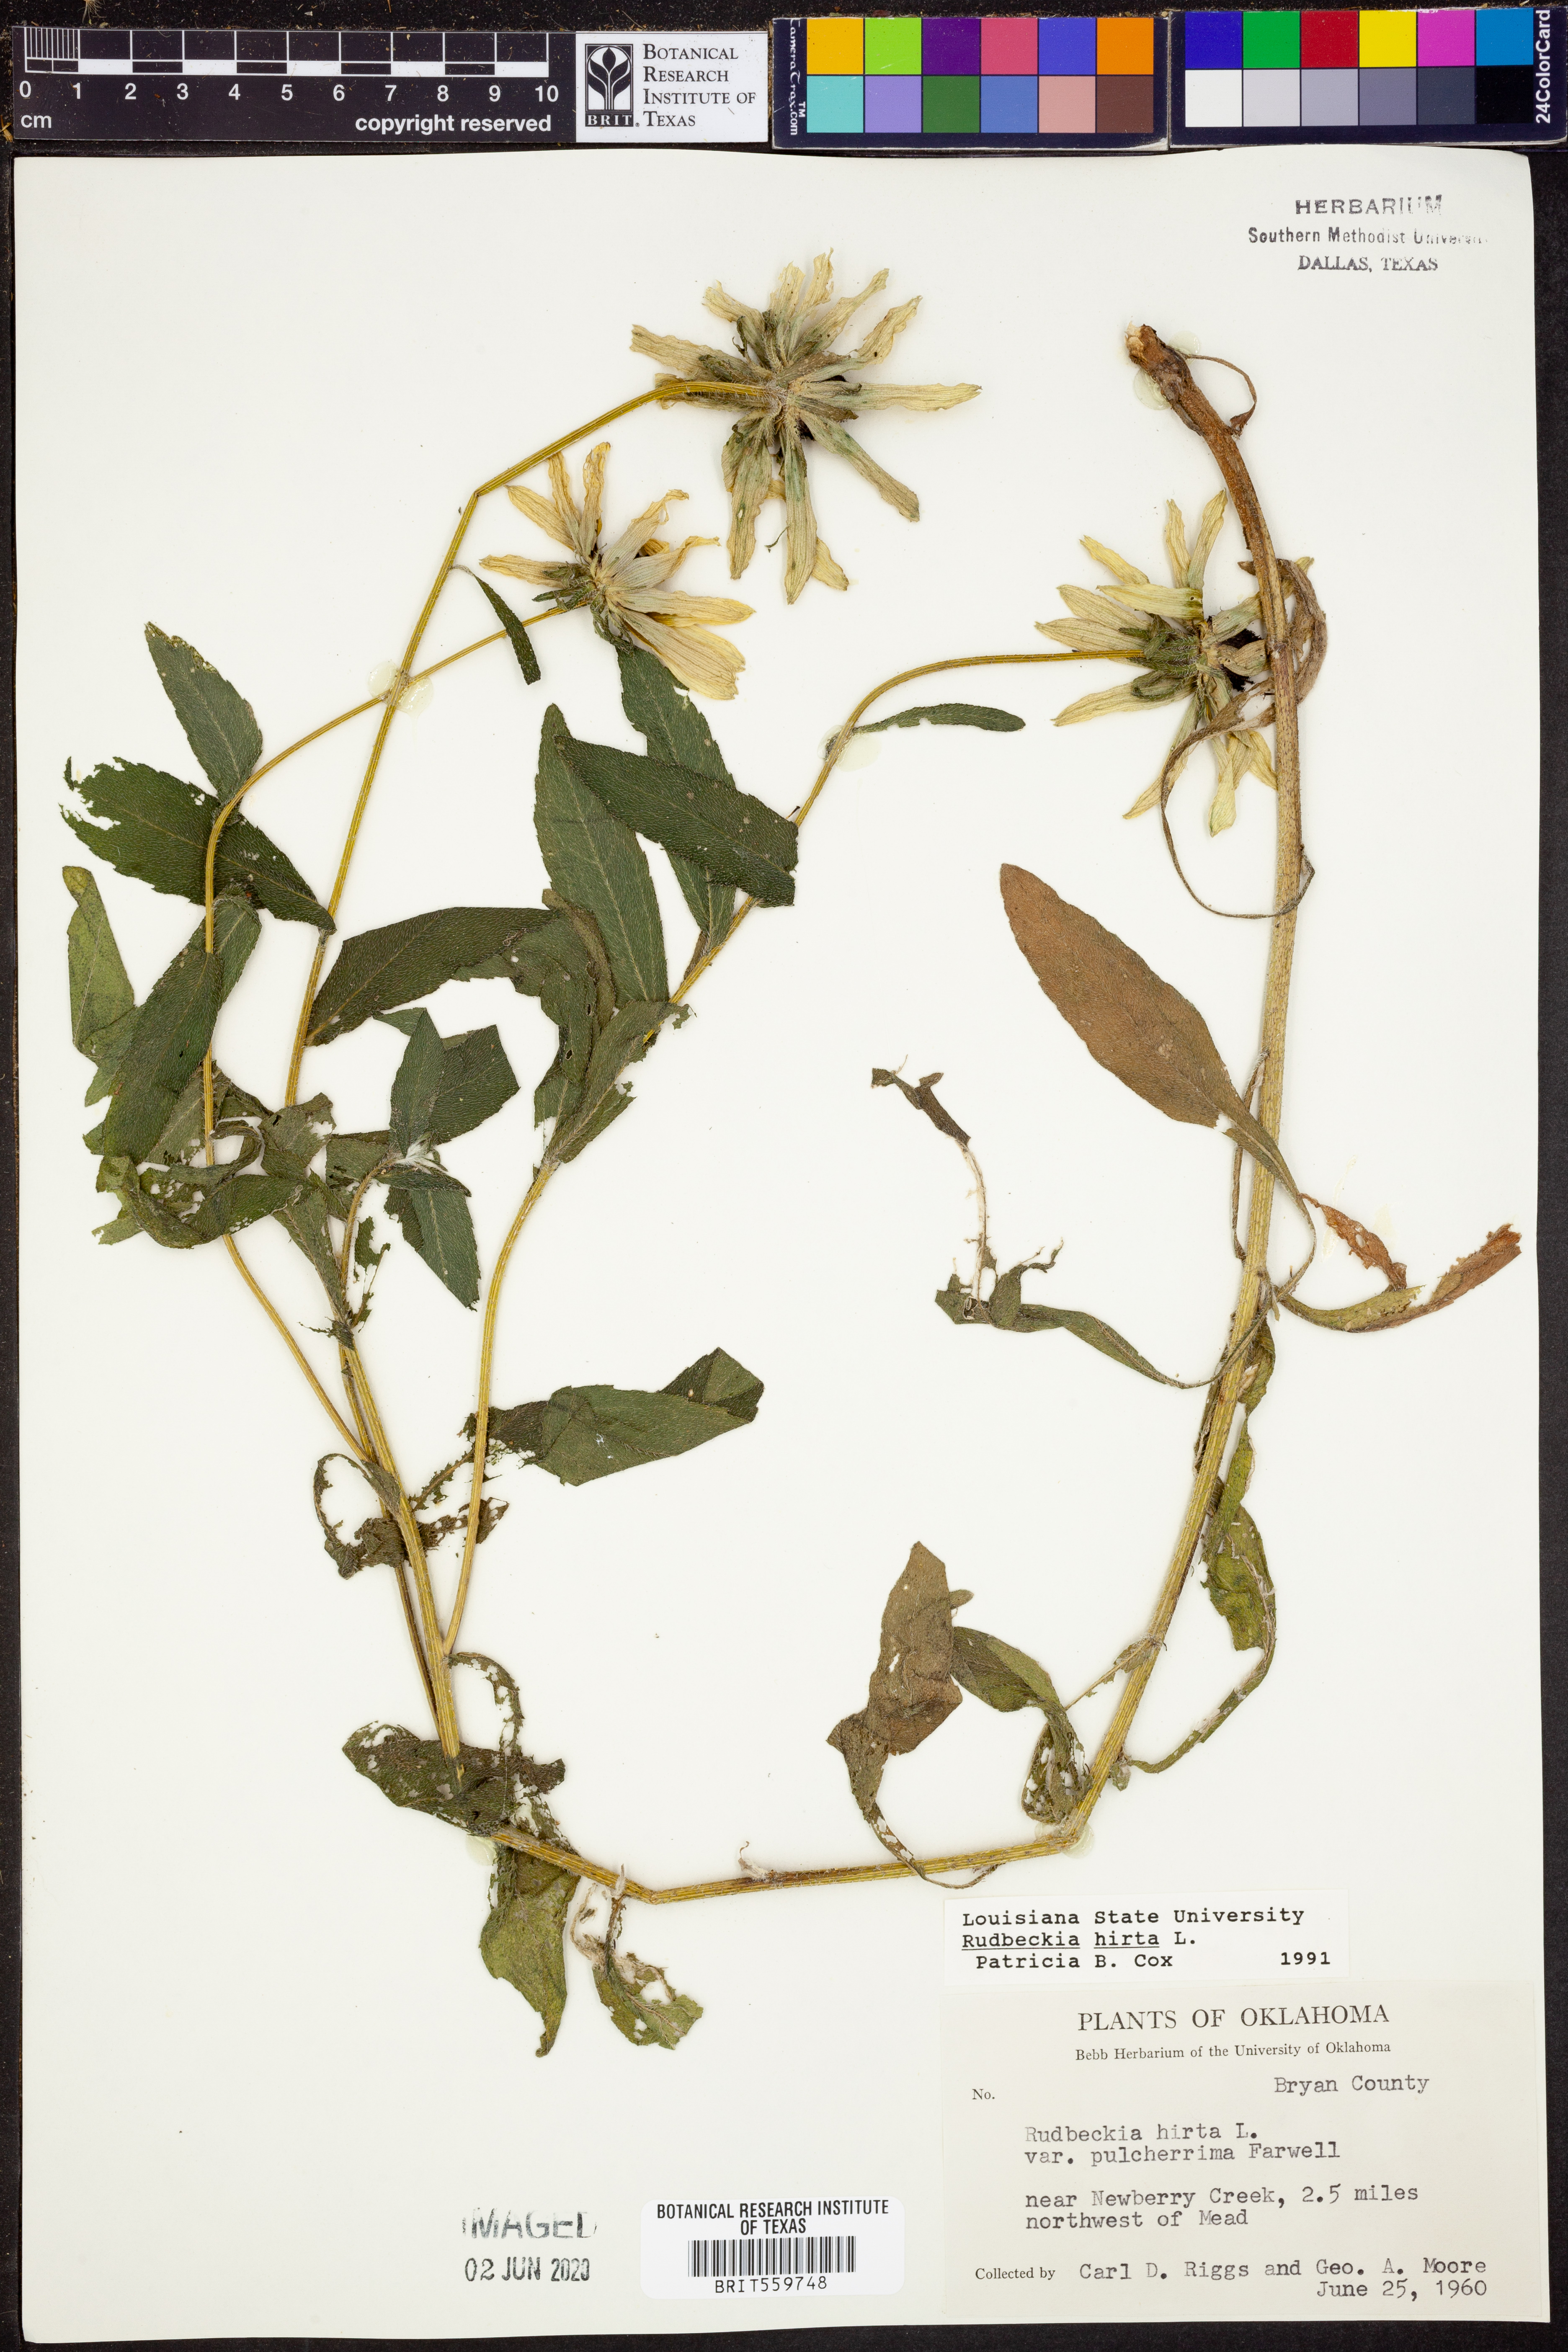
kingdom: Plantae
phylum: Tracheophyta
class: Magnoliopsida
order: Asterales
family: Asteraceae
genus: Rudbeckia
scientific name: Rudbeckia hirta
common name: Black-eyed-susan
